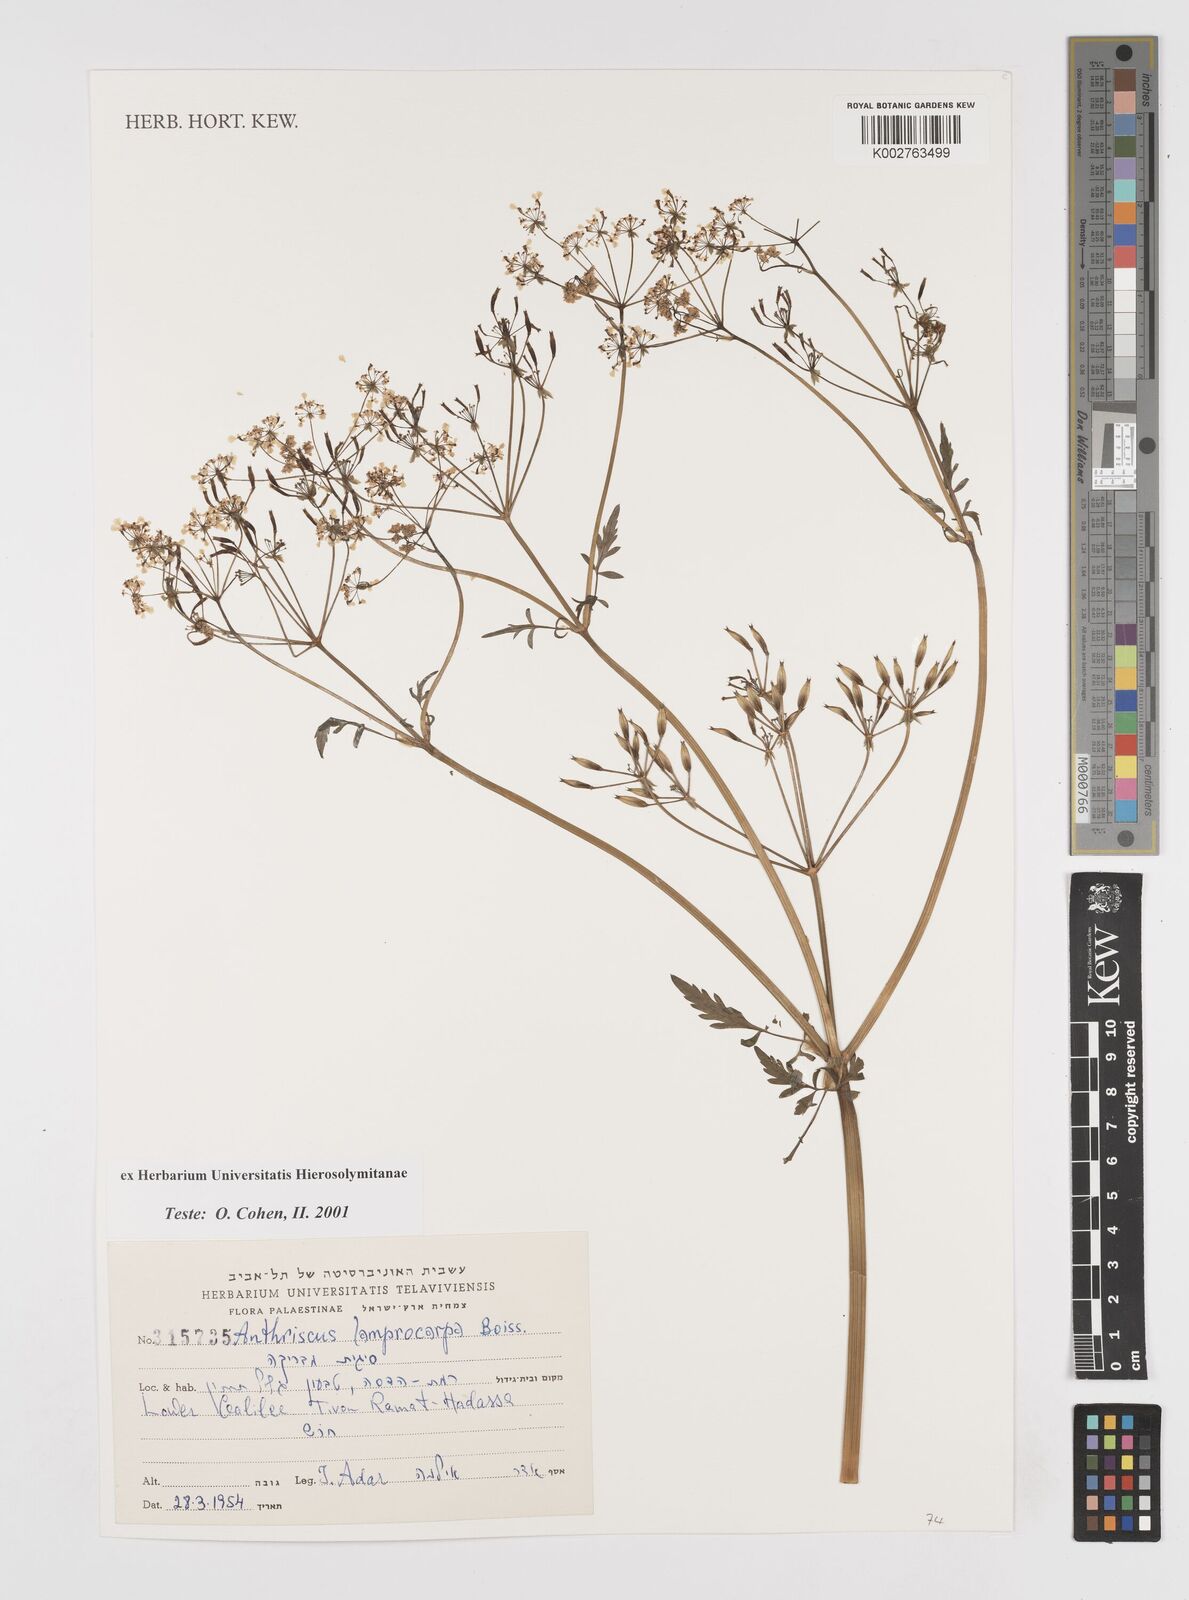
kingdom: Plantae
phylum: Tracheophyta
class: Magnoliopsida
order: Apiales
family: Apiaceae
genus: Anthriscus
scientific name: Anthriscus lamprocarpa
